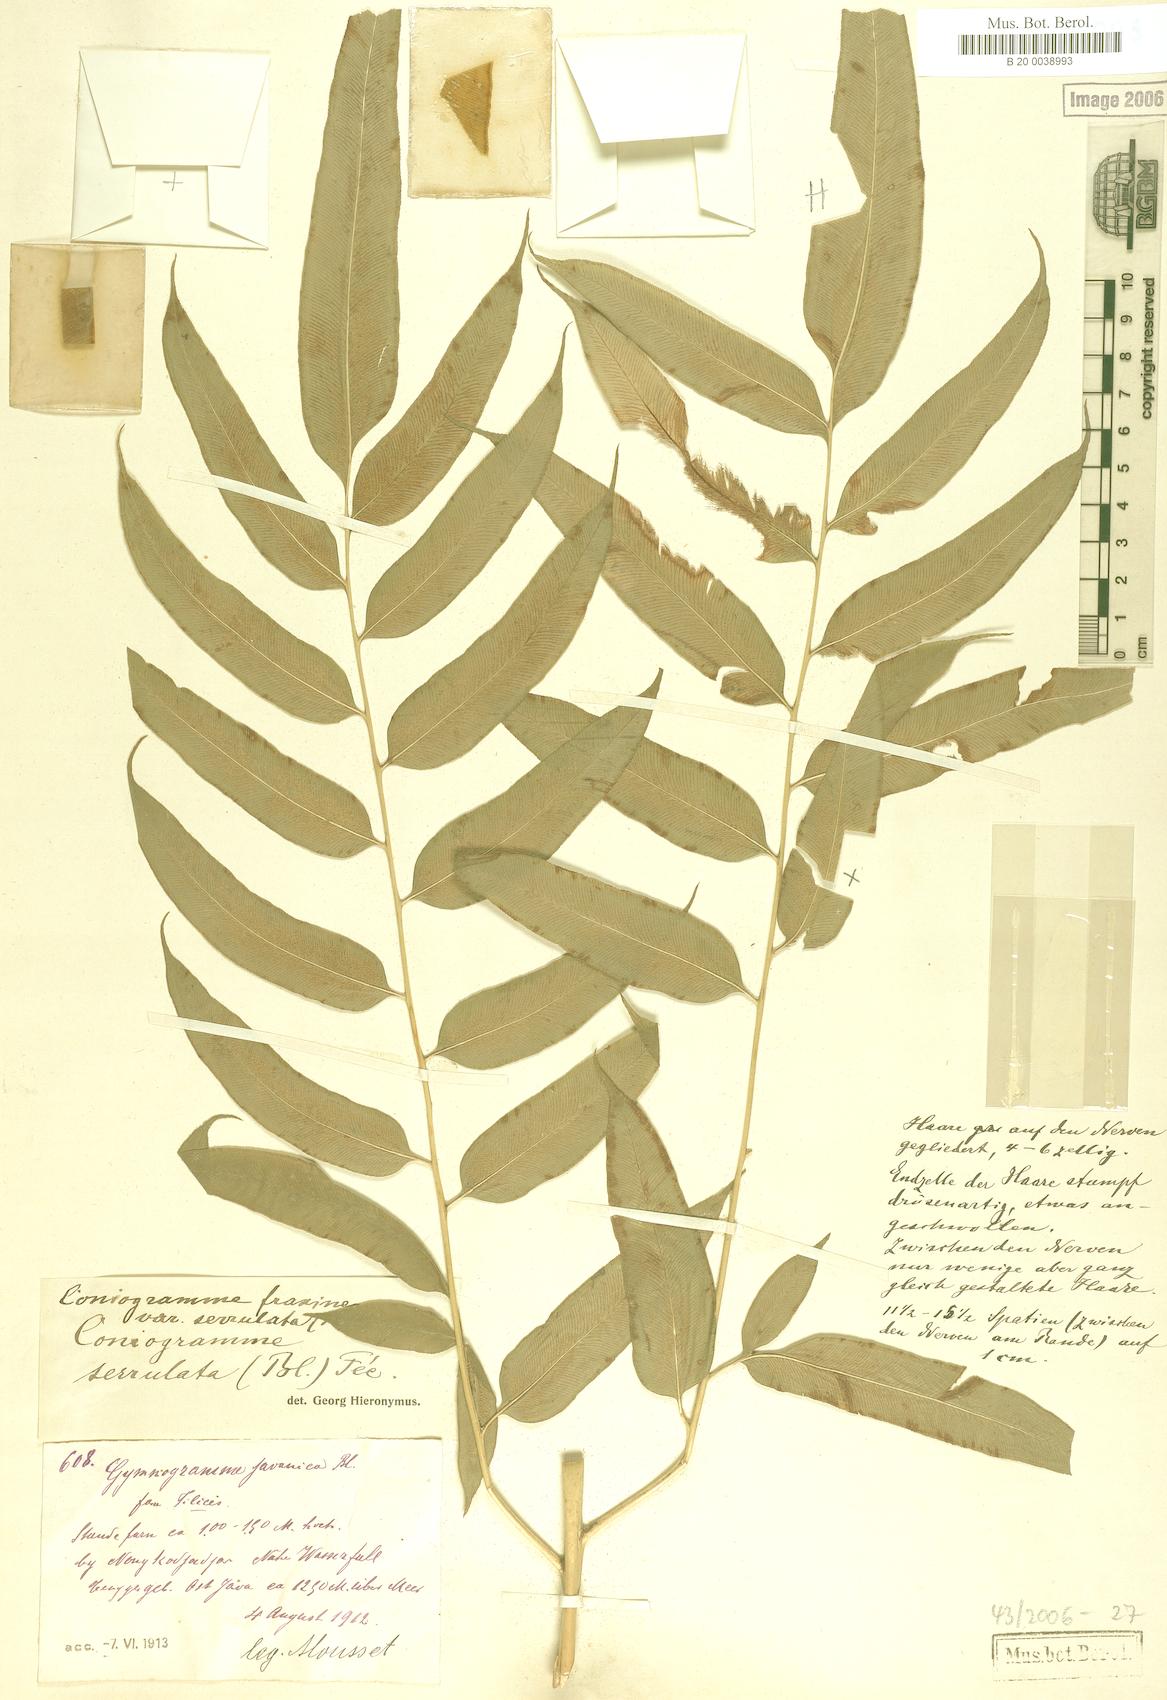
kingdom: Plantae
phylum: Tracheophyta
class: Polypodiopsida
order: Polypodiales
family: Pteridaceae
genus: Coniogramme
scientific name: Coniogramme serrulata
